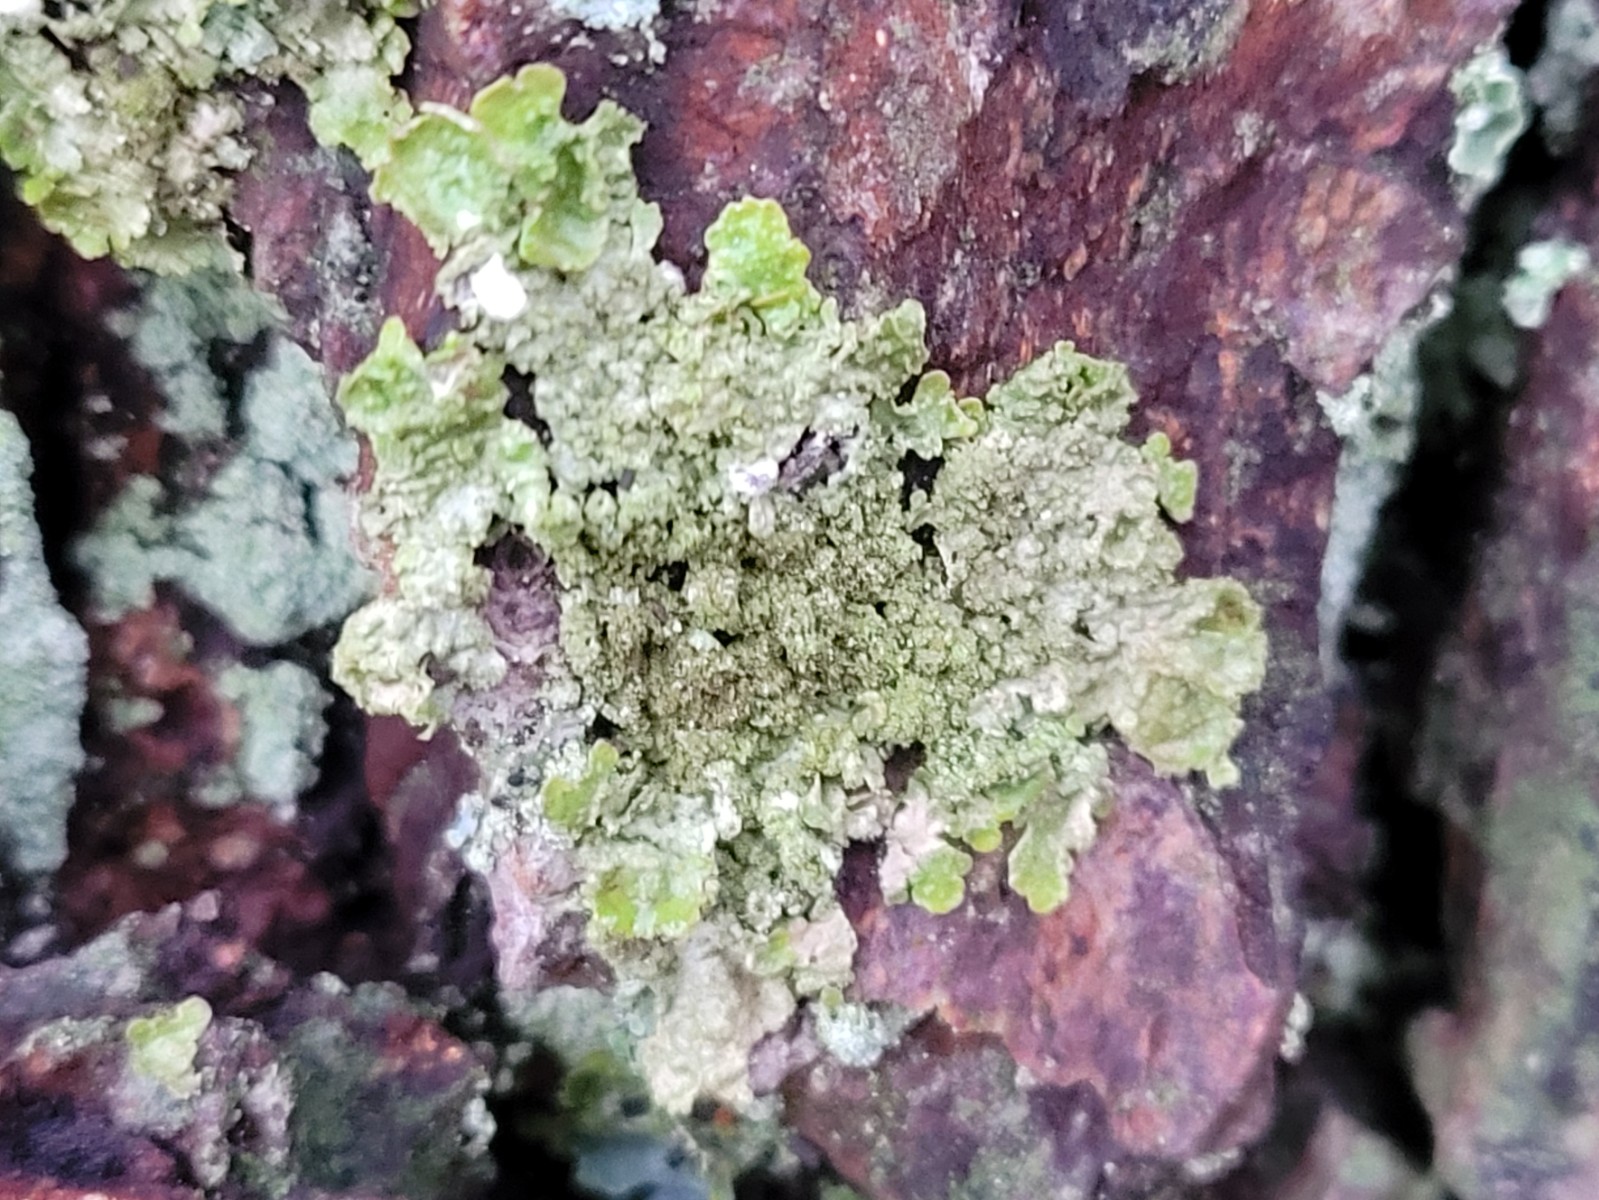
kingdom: Fungi
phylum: Ascomycota
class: Lecanoromycetes
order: Lecanorales
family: Parmeliaceae
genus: Melanelixia
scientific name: Melanelixia subaurifera
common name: guldpudret skållav
